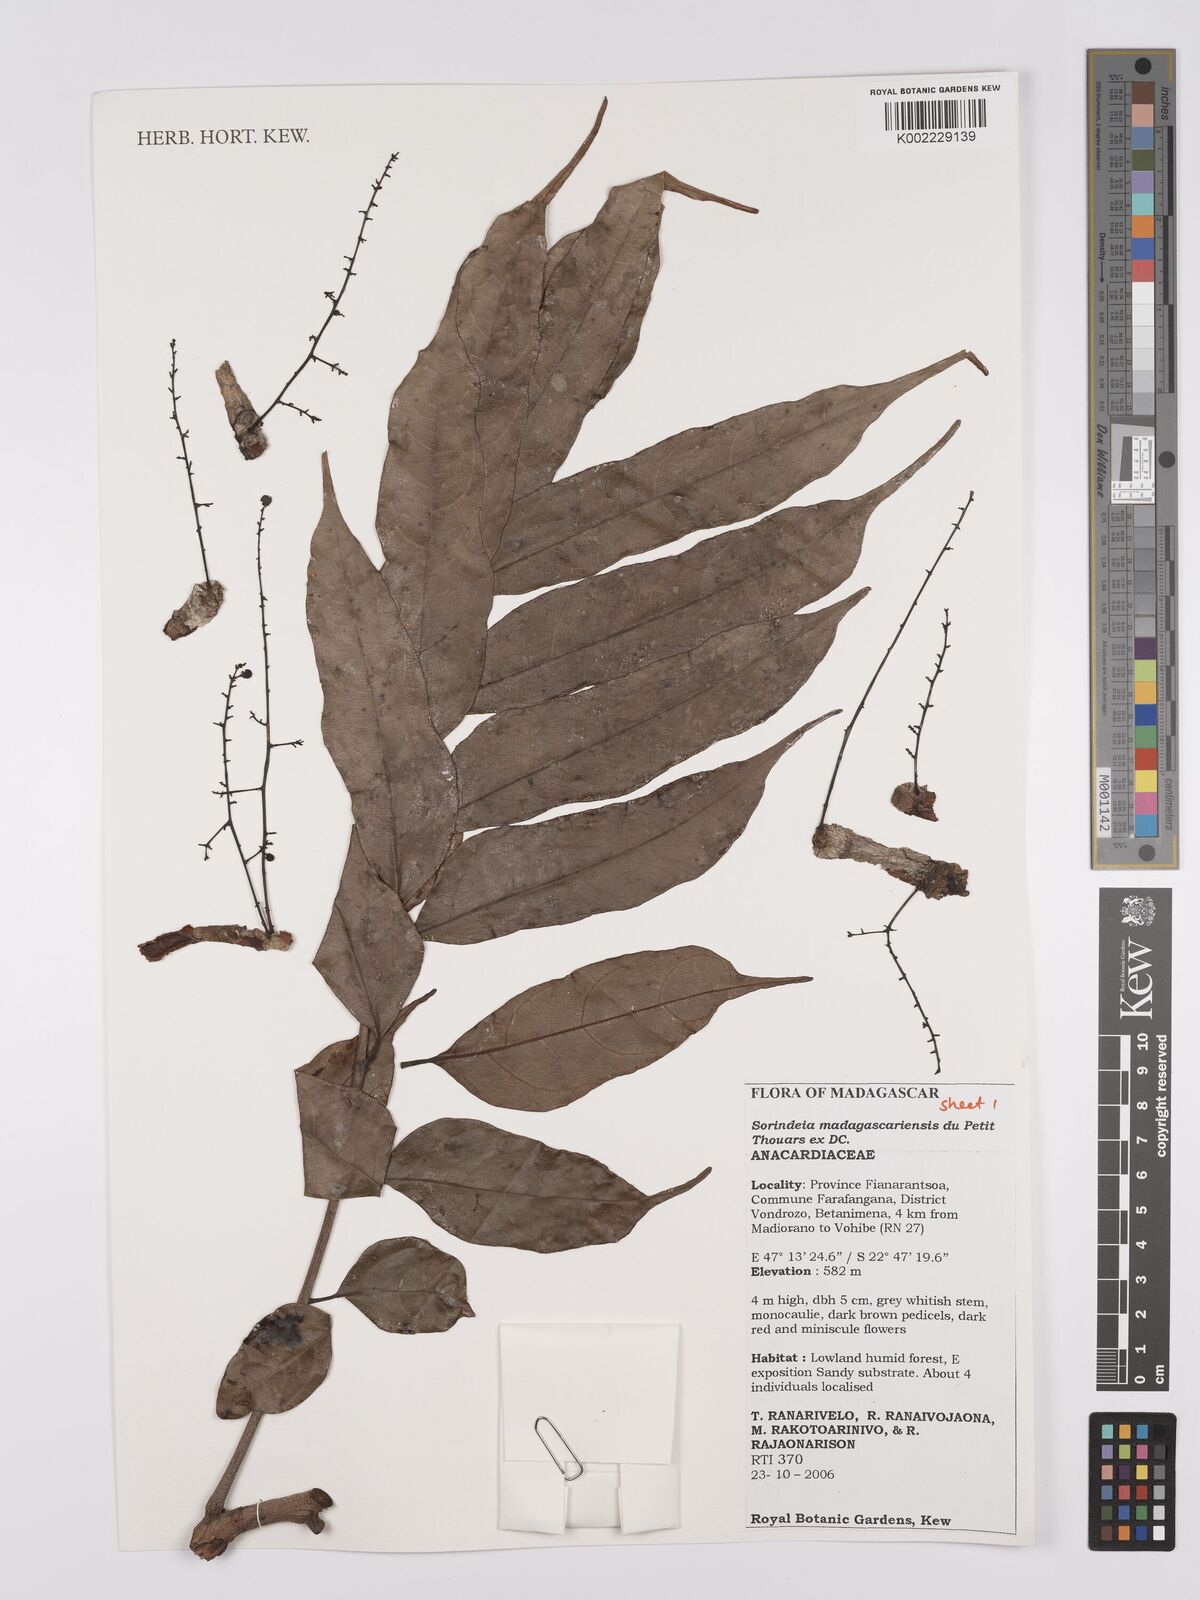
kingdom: Plantae
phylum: Tracheophyta
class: Magnoliopsida
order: Sapindales
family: Anacardiaceae
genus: Sorindeia
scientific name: Sorindeia madagascariensis
